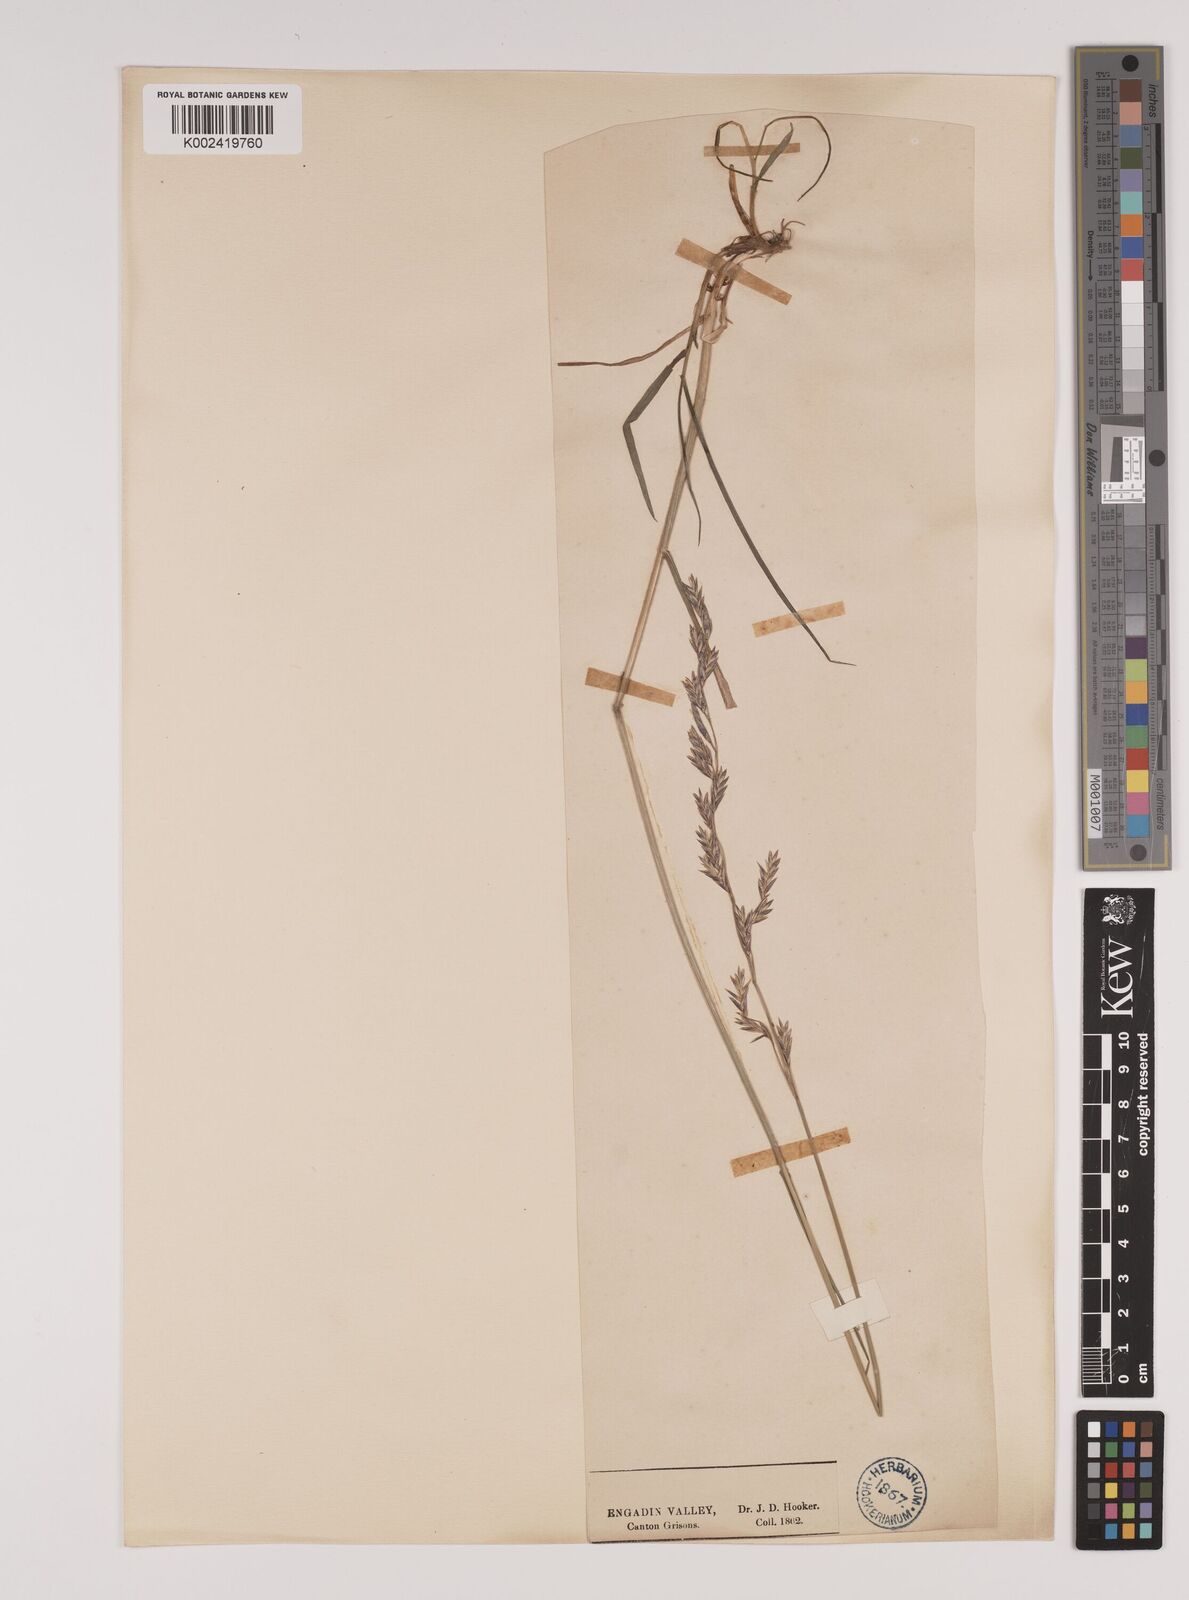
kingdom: Plantae
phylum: Tracheophyta
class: Liliopsida
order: Poales
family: Poaceae
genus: Lolium
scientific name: Lolium pratense
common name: Dover grass
